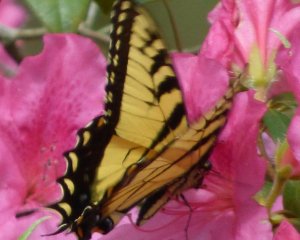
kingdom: Animalia
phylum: Arthropoda
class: Insecta
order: Lepidoptera
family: Papilionidae
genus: Pterourus
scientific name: Pterourus glaucus
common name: Eastern Tiger Swallowtail
